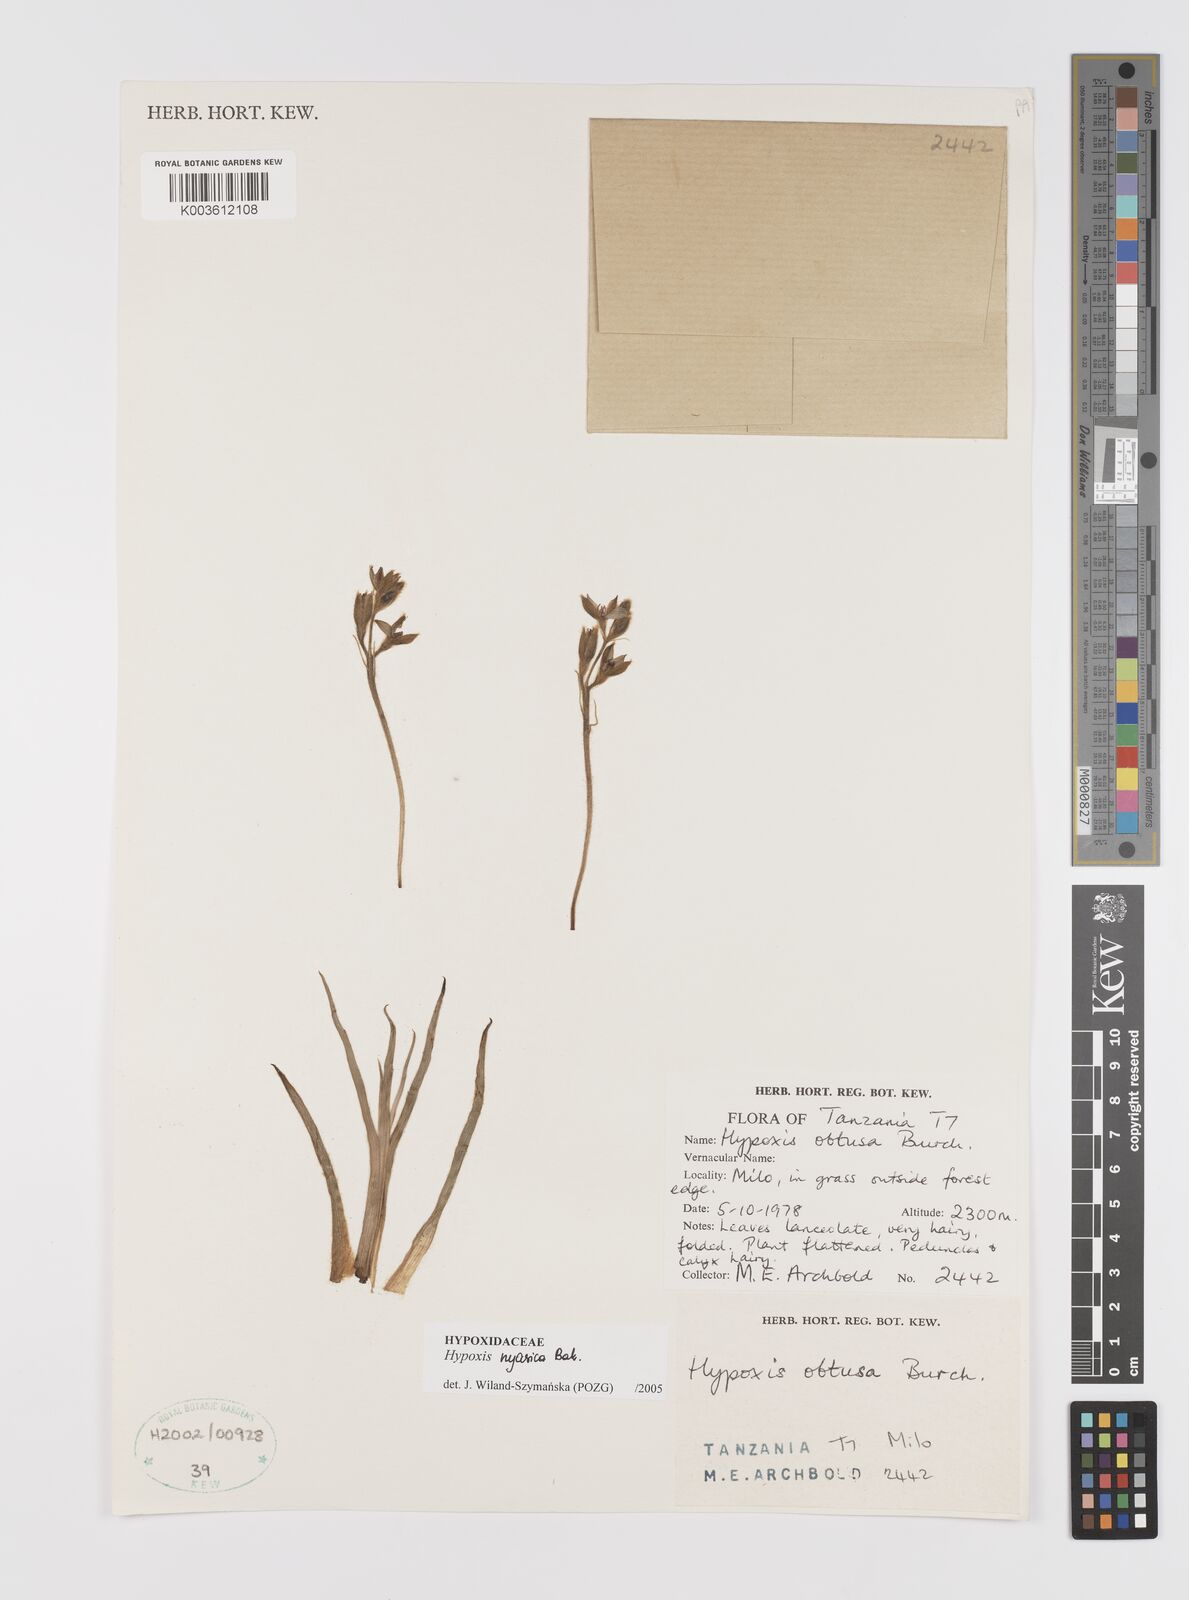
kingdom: Plantae
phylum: Tracheophyta
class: Liliopsida
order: Asparagales
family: Hypoxidaceae
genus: Hypoxis
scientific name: Hypoxis nyasica
